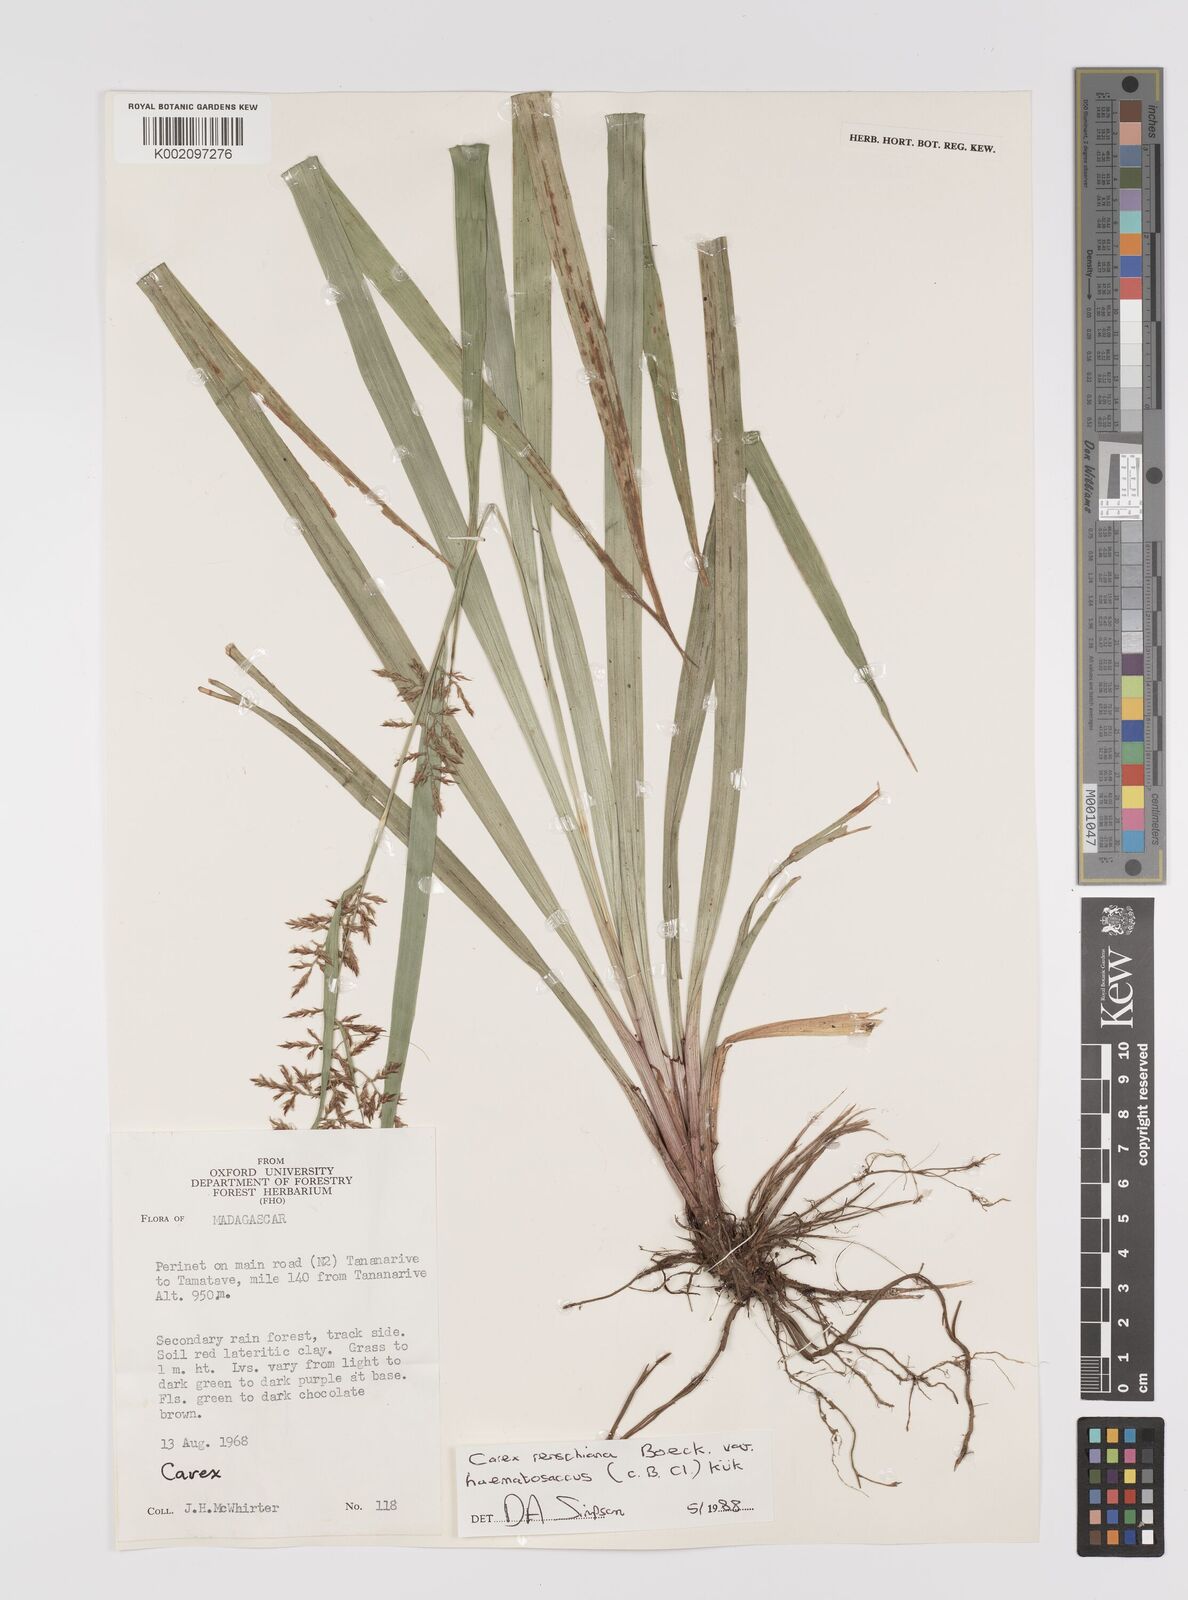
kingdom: Plantae
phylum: Tracheophyta
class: Liliopsida
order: Poales
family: Cyperaceae
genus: Carex
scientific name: Carex renschiana
